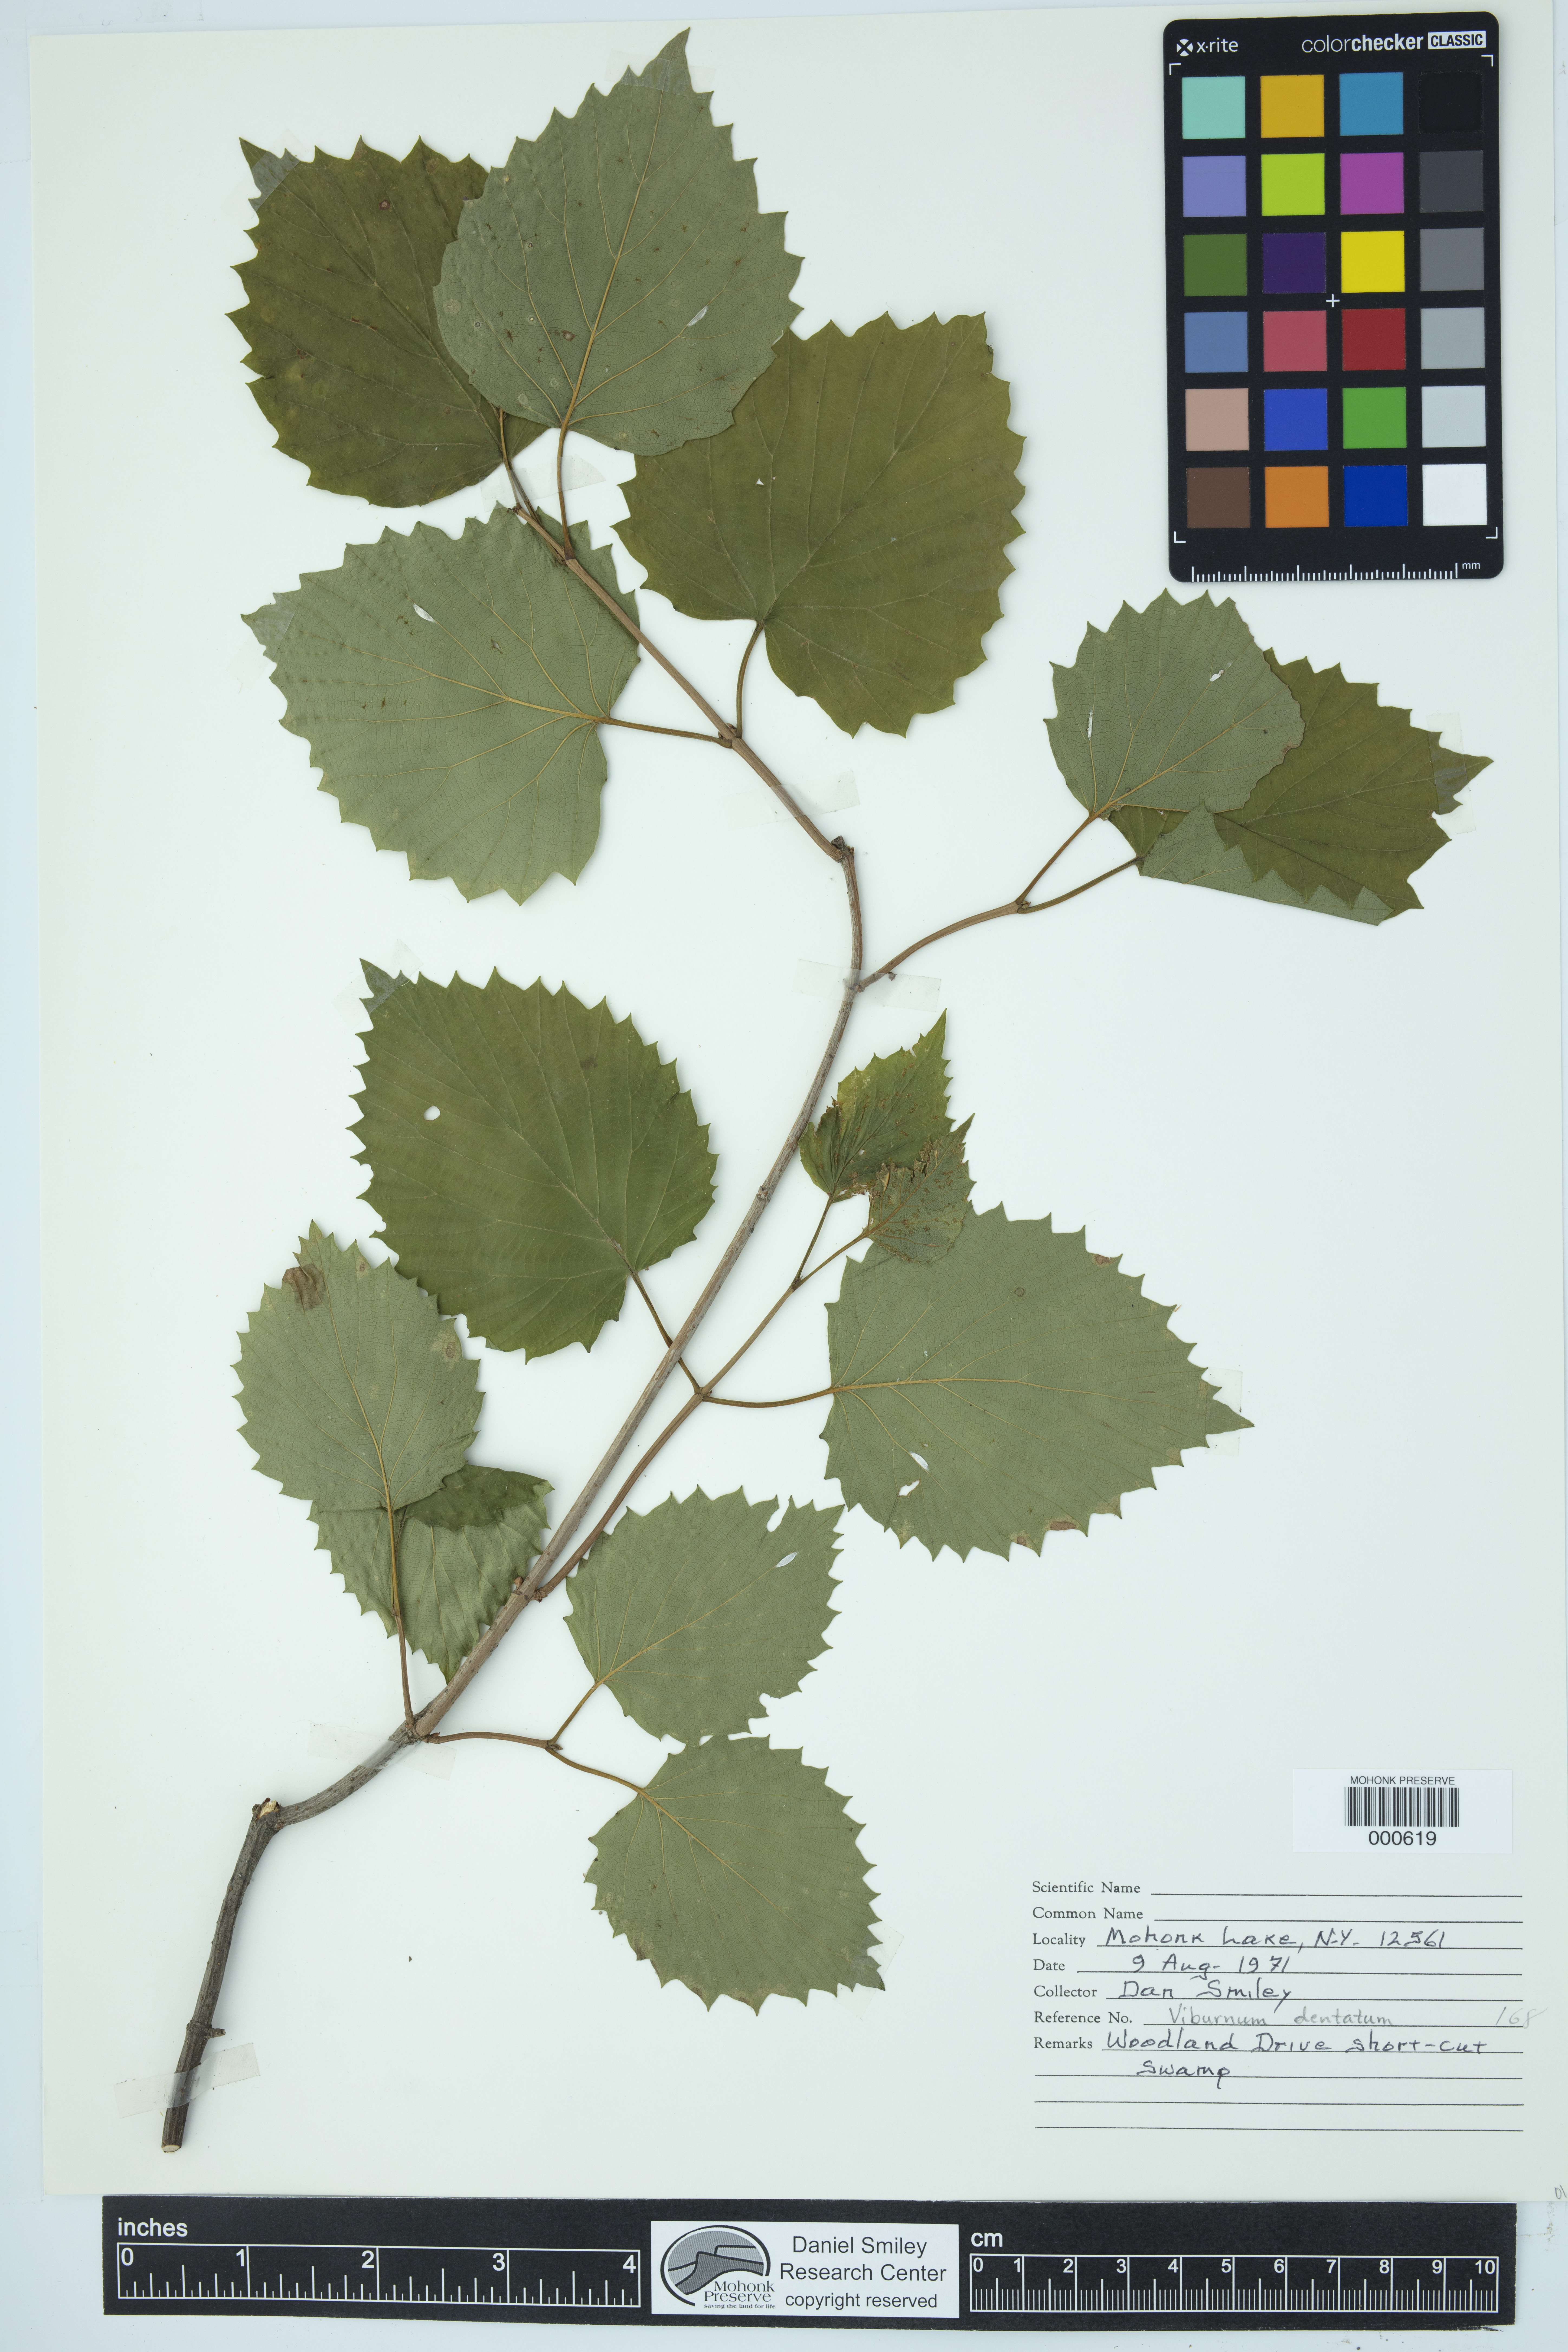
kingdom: Plantae
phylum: Tracheophyta
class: Magnoliopsida
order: Dipsacales
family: Viburnaceae
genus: Viburnum
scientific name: Viburnum dentatum
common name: Arrow-wood
